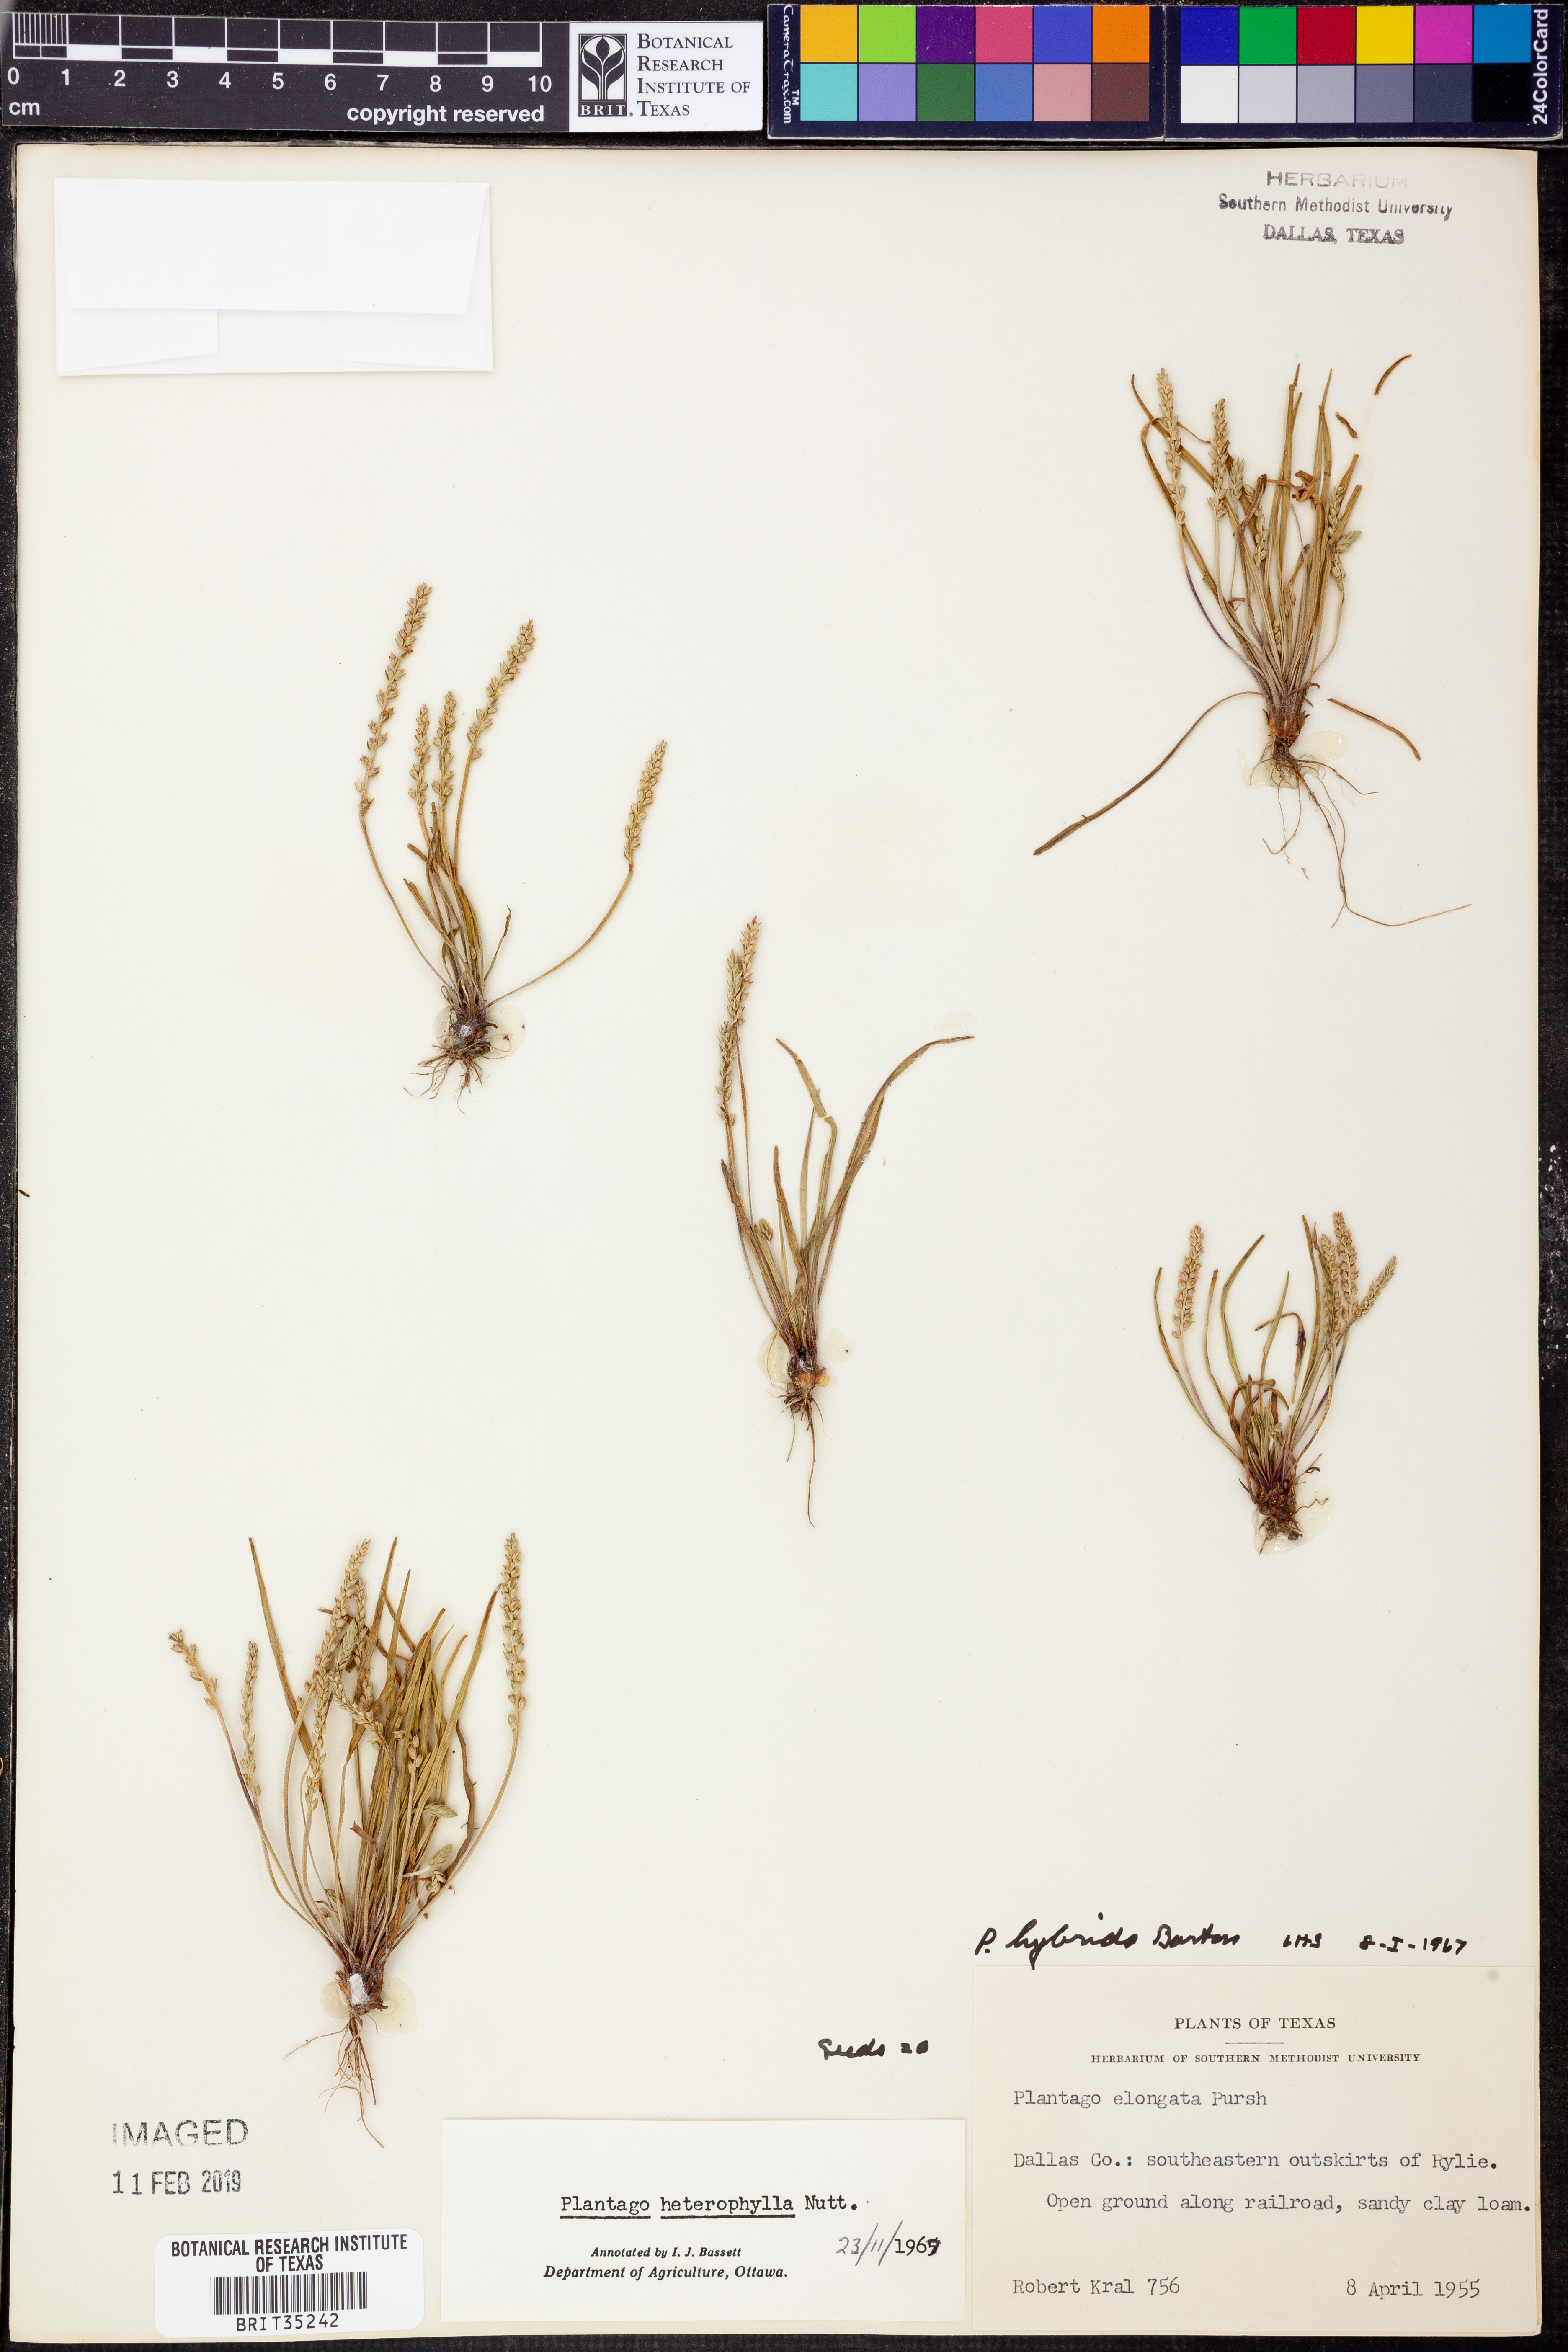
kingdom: Plantae
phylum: Tracheophyta
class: Magnoliopsida
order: Lamiales
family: Plantaginaceae
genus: Plantago
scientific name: Plantago heterophylla
